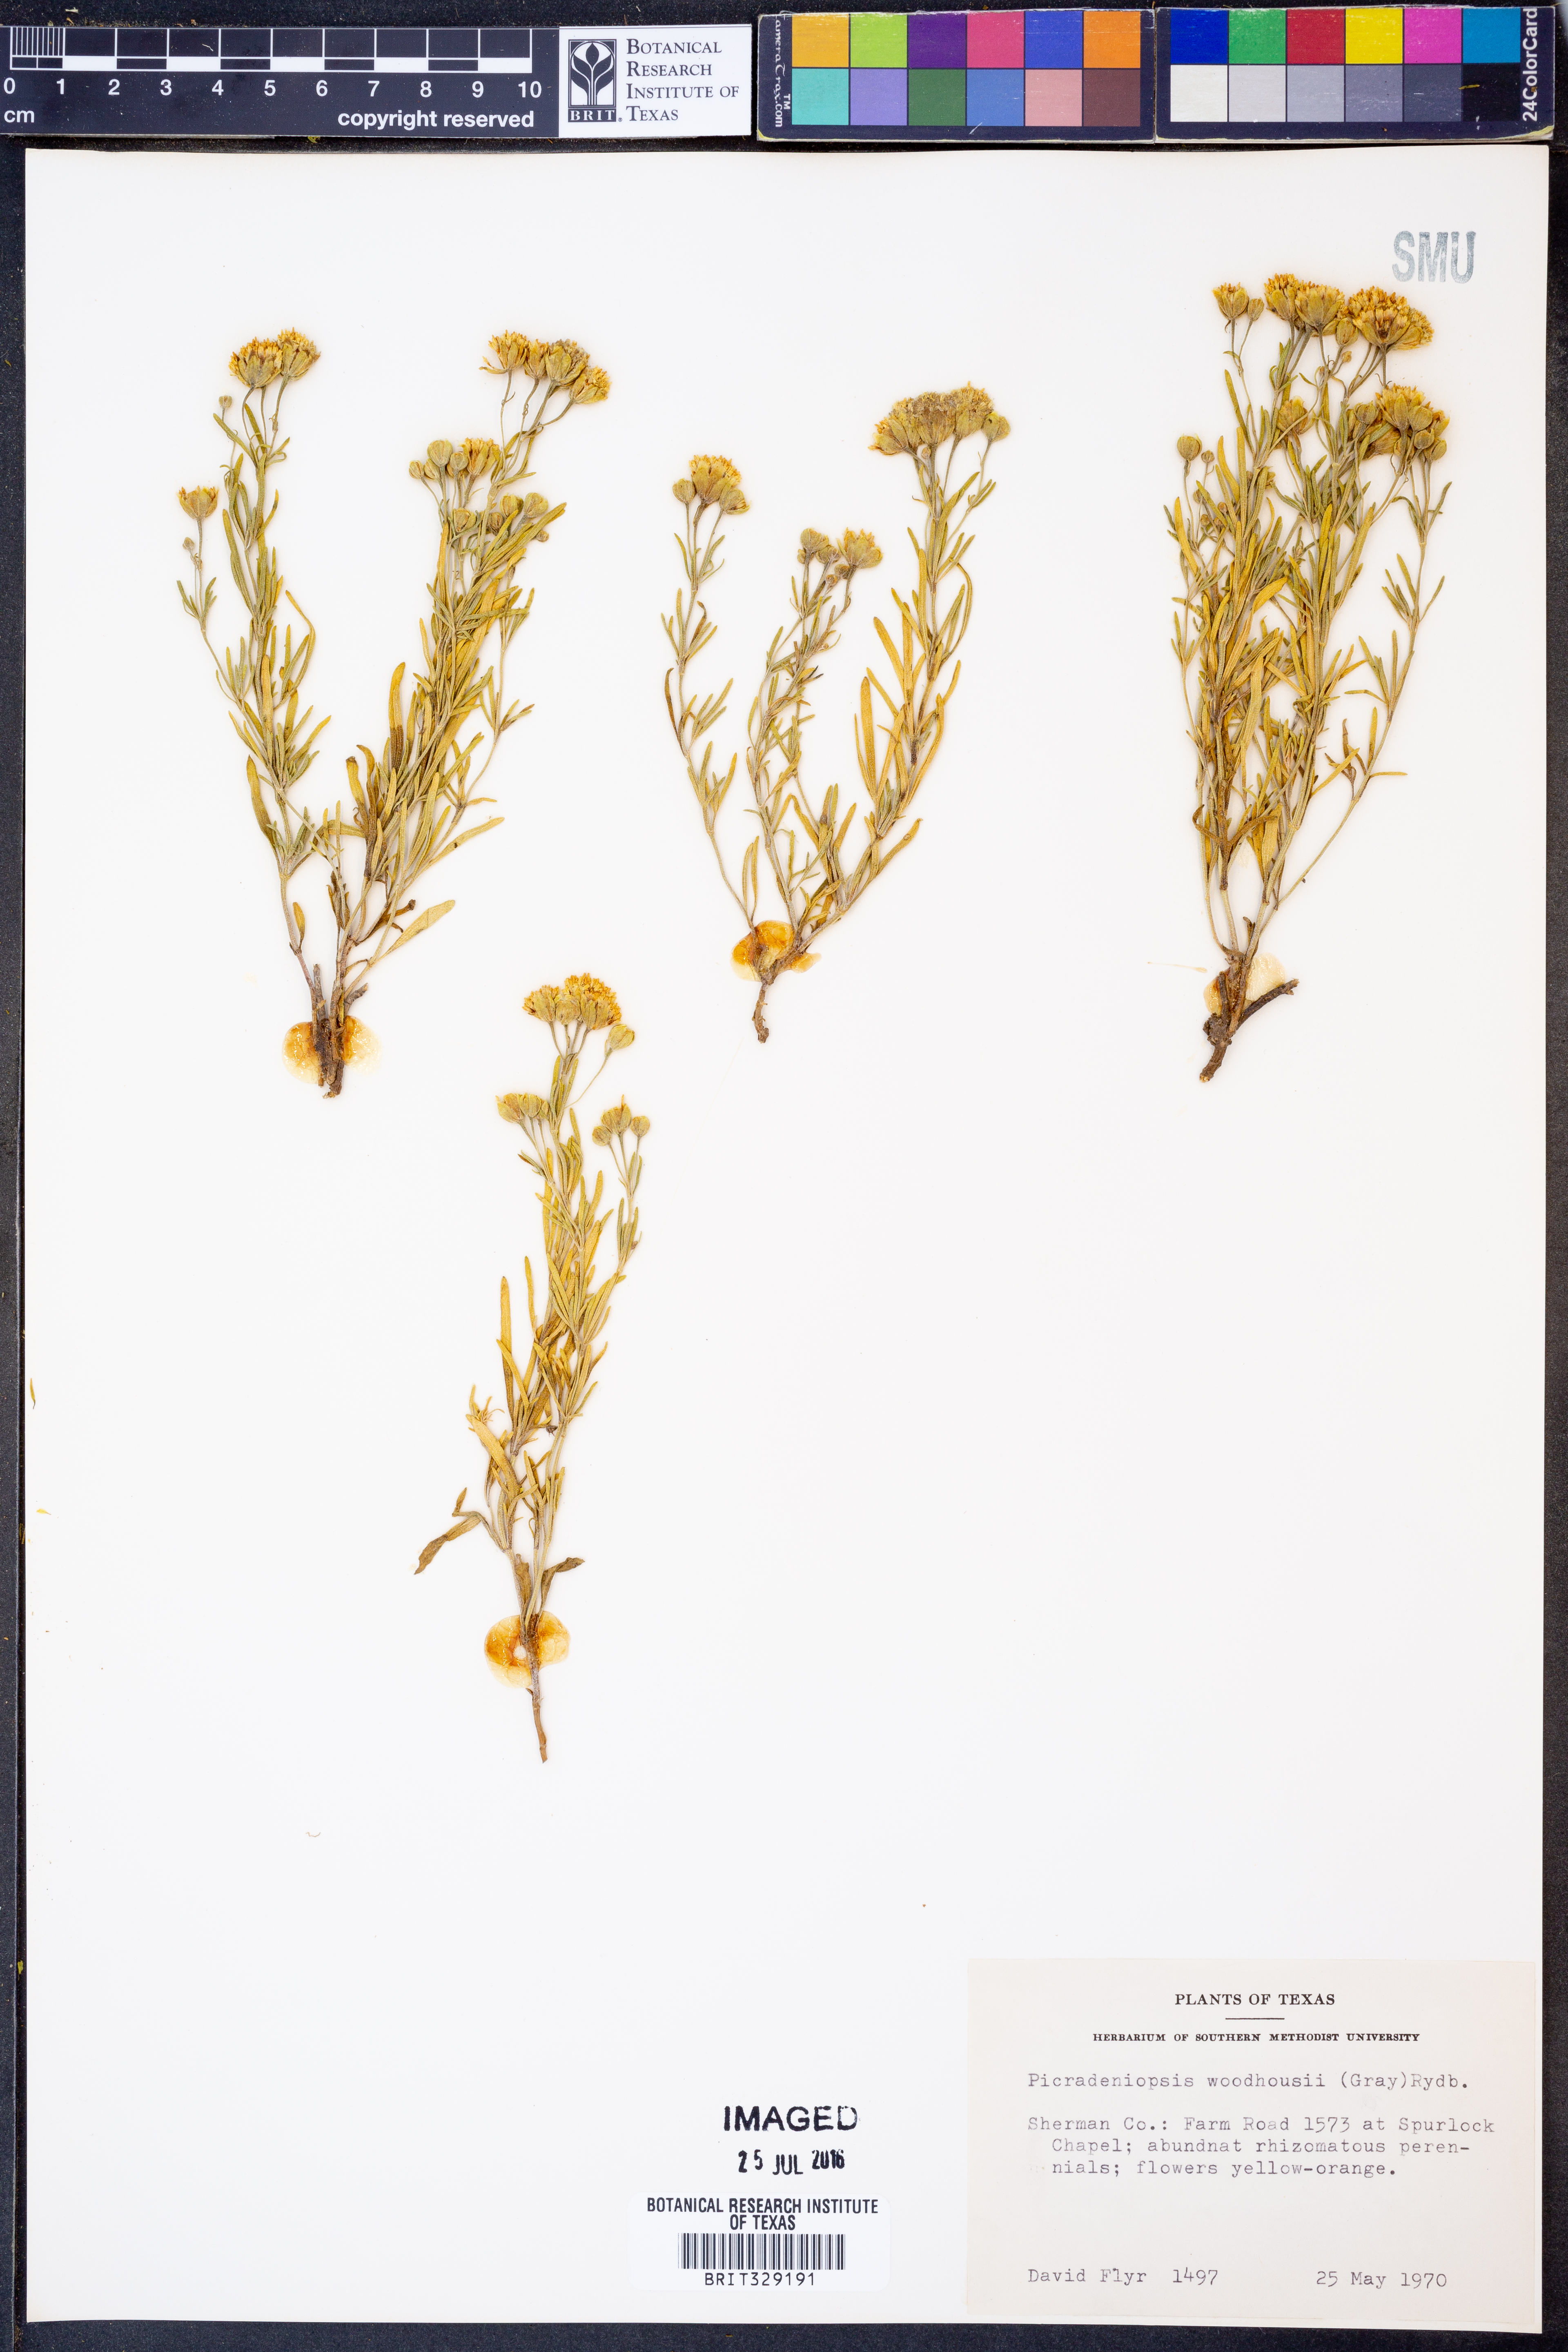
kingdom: Plantae
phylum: Tracheophyta
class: Magnoliopsida
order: Asterales
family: Asteraceae
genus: Picradeniopsis
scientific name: Picradeniopsis woodhousei
